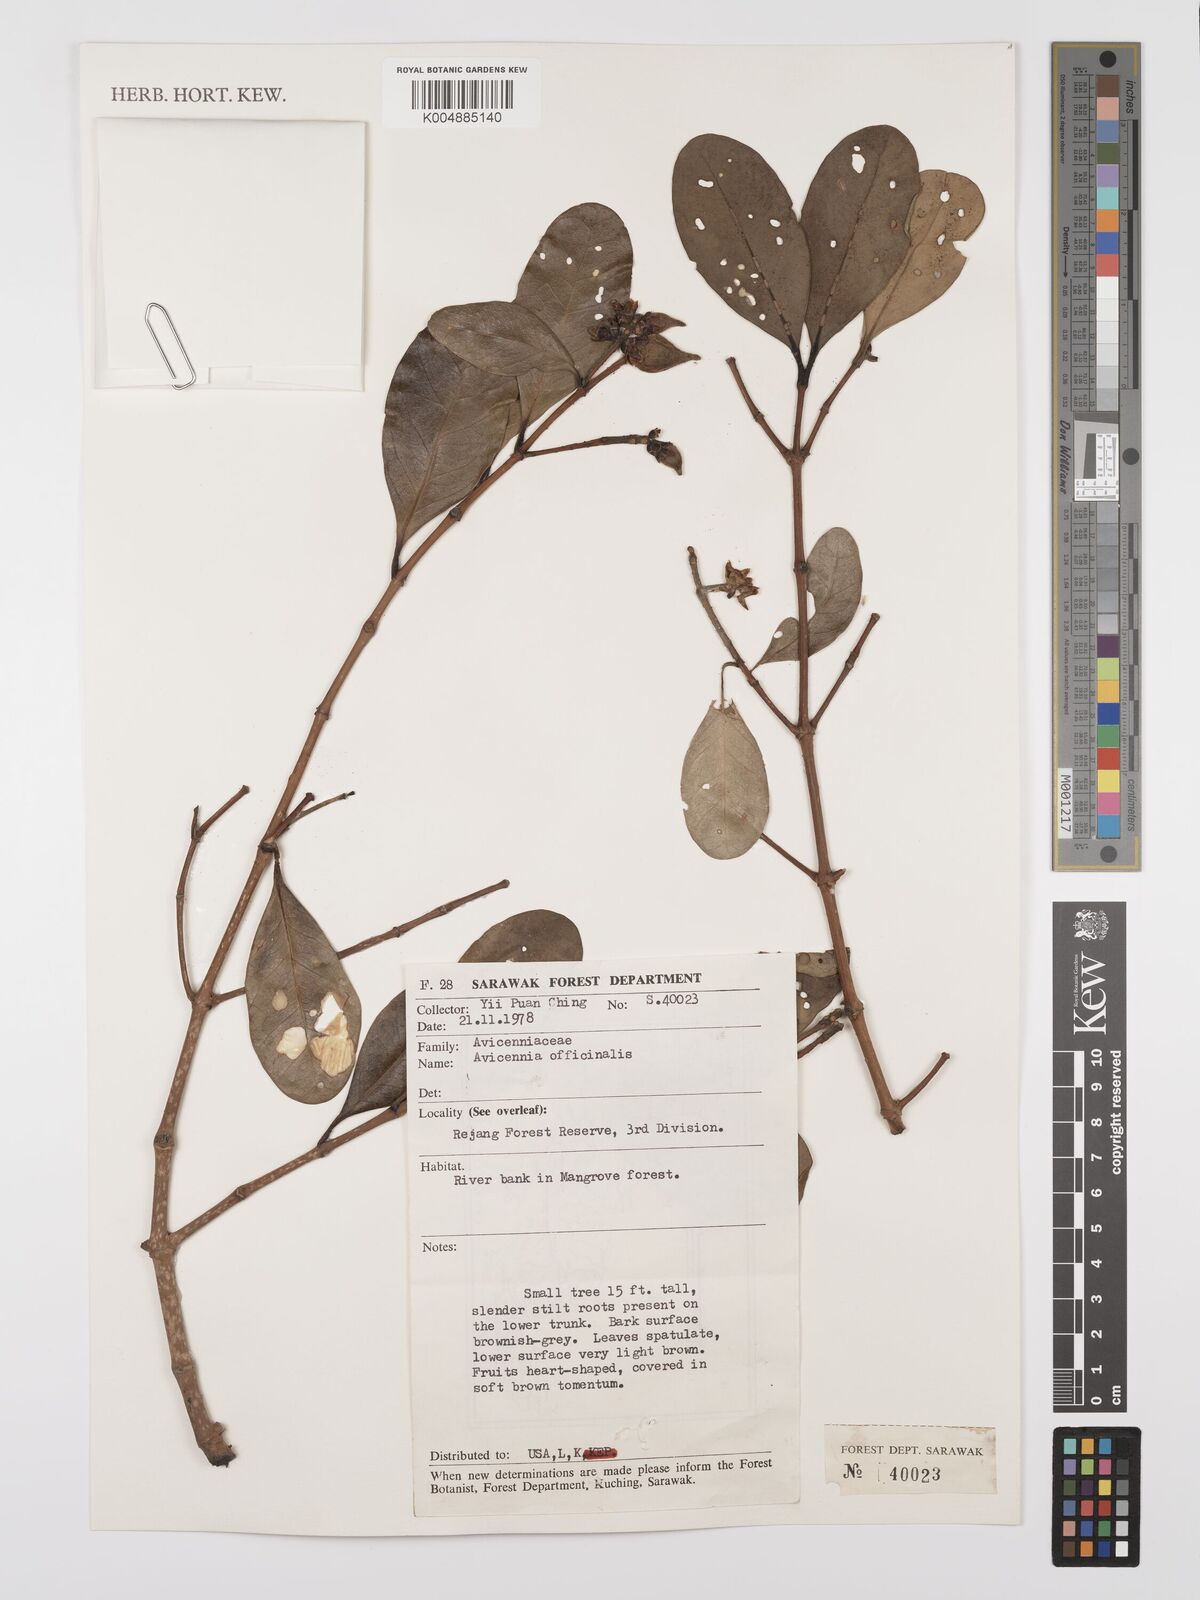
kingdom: Plantae
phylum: Tracheophyta
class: Magnoliopsida
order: Lamiales
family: Acanthaceae
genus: Avicennia
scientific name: Avicennia officinalis
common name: Baen
